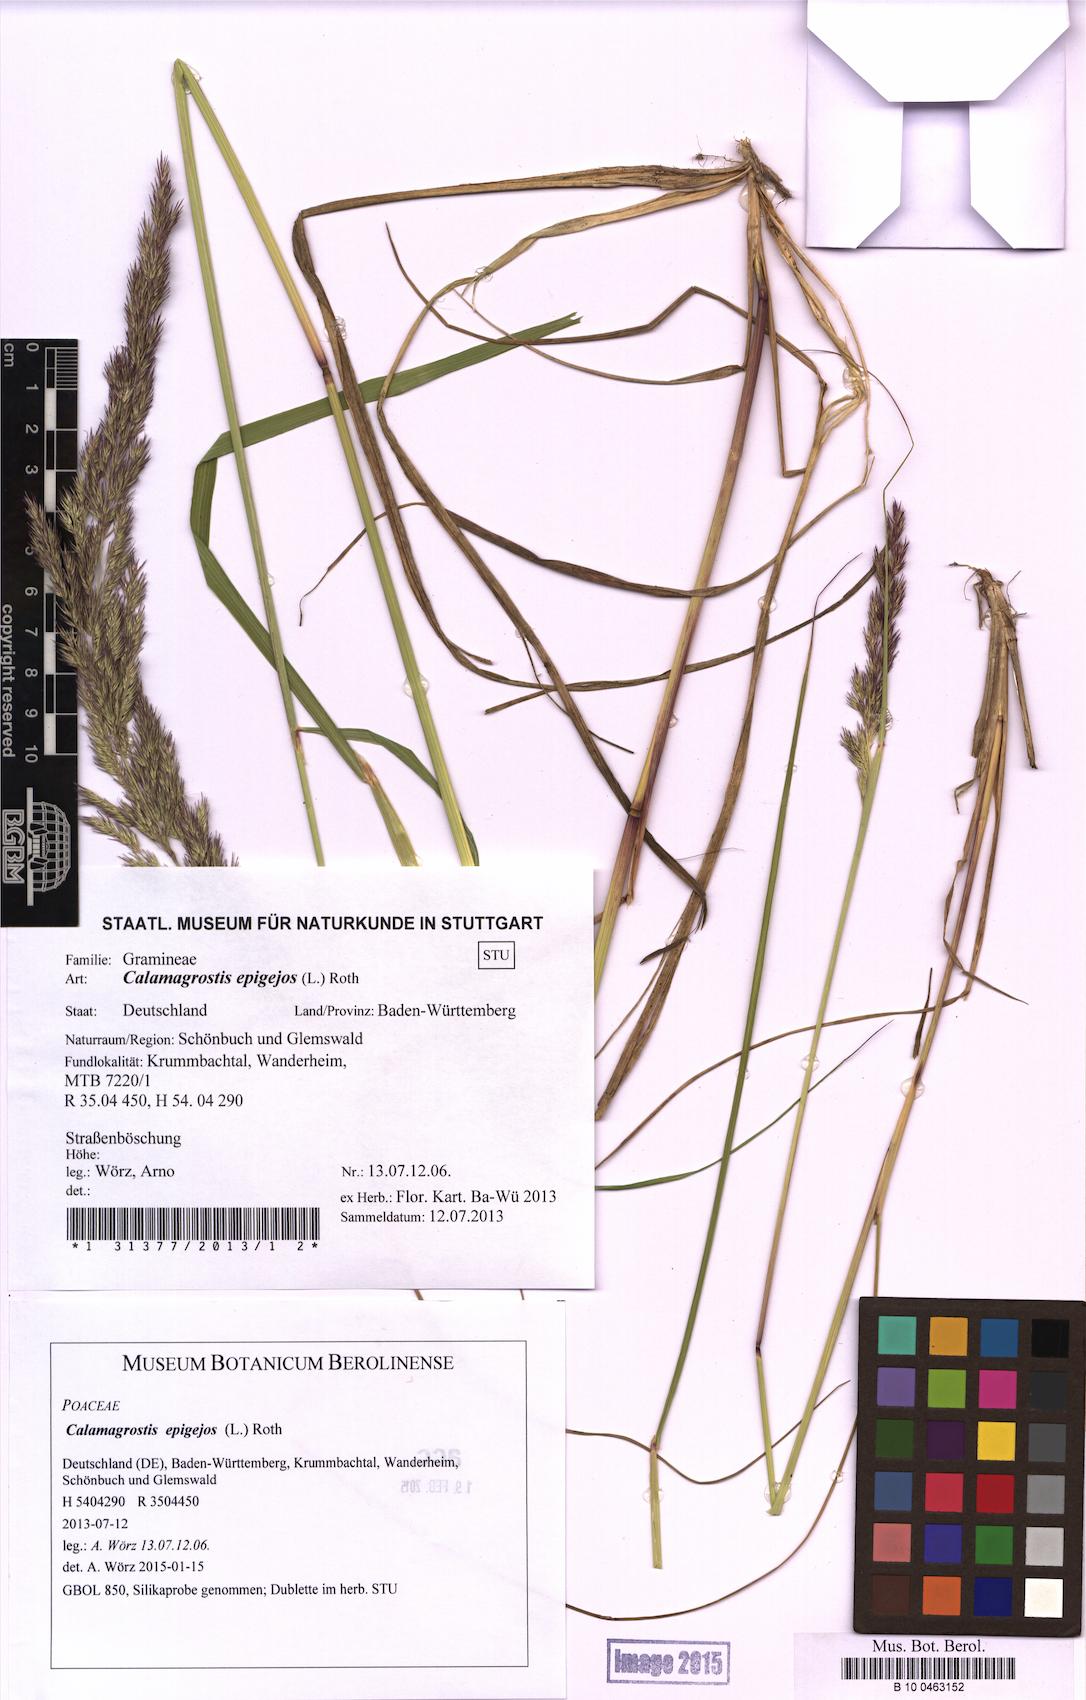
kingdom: Plantae
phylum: Tracheophyta
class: Liliopsida
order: Poales
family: Poaceae
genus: Calamagrostis
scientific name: Calamagrostis epigejos
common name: Wood small-reed
